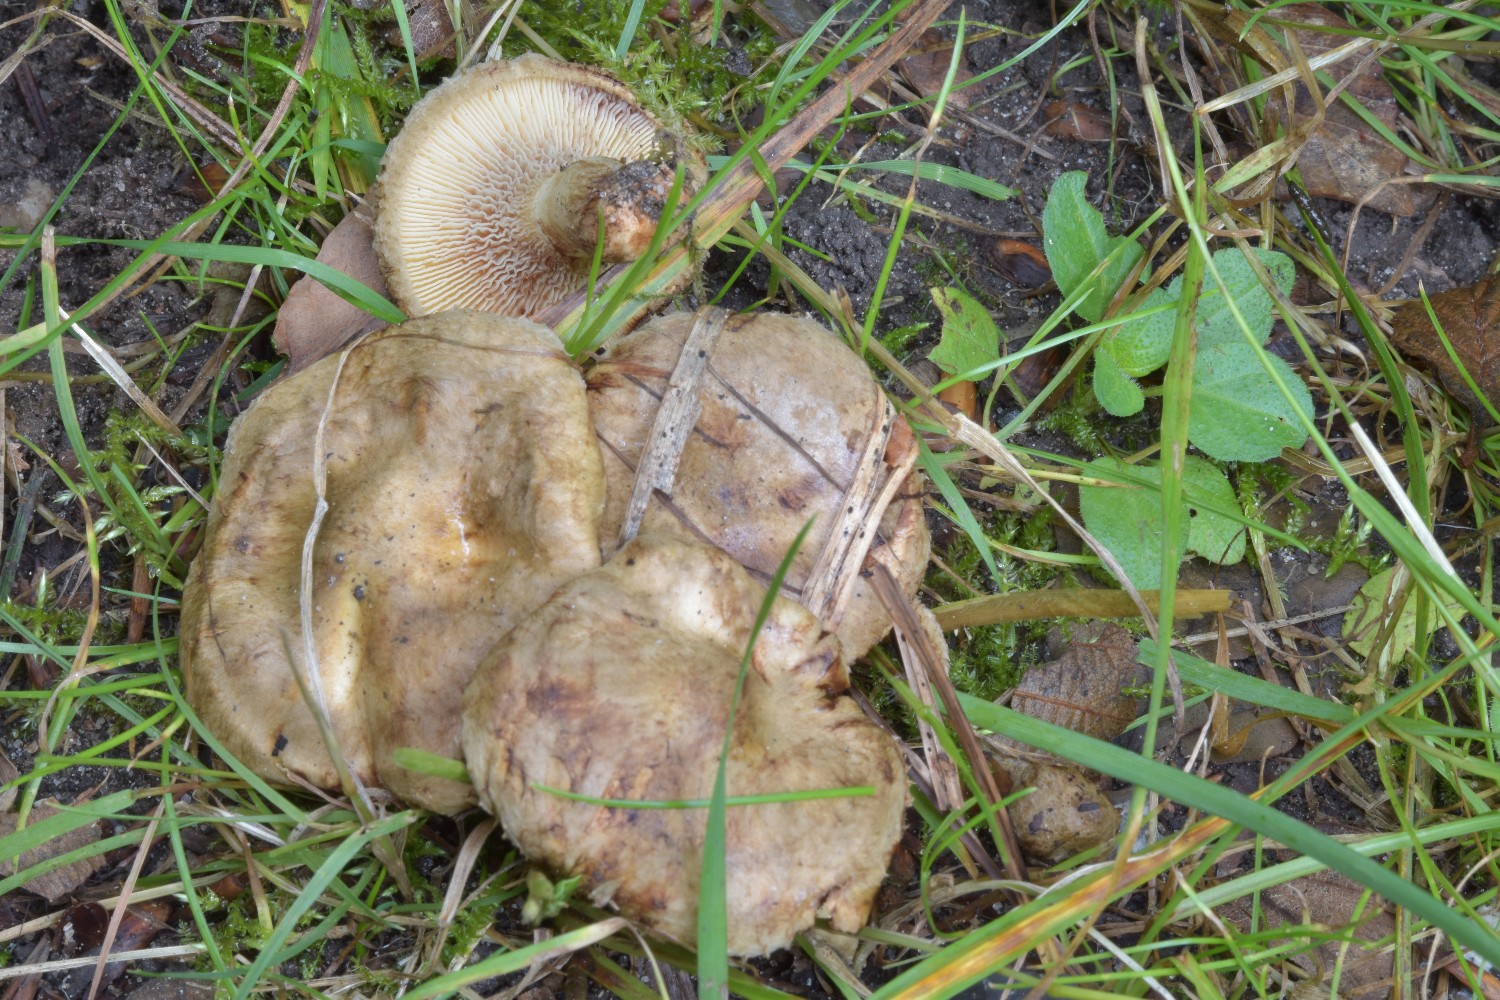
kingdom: Fungi
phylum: Basidiomycota
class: Agaricomycetes
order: Boletales
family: Paxillaceae
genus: Paxillus
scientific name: Paxillus rubicundulus
